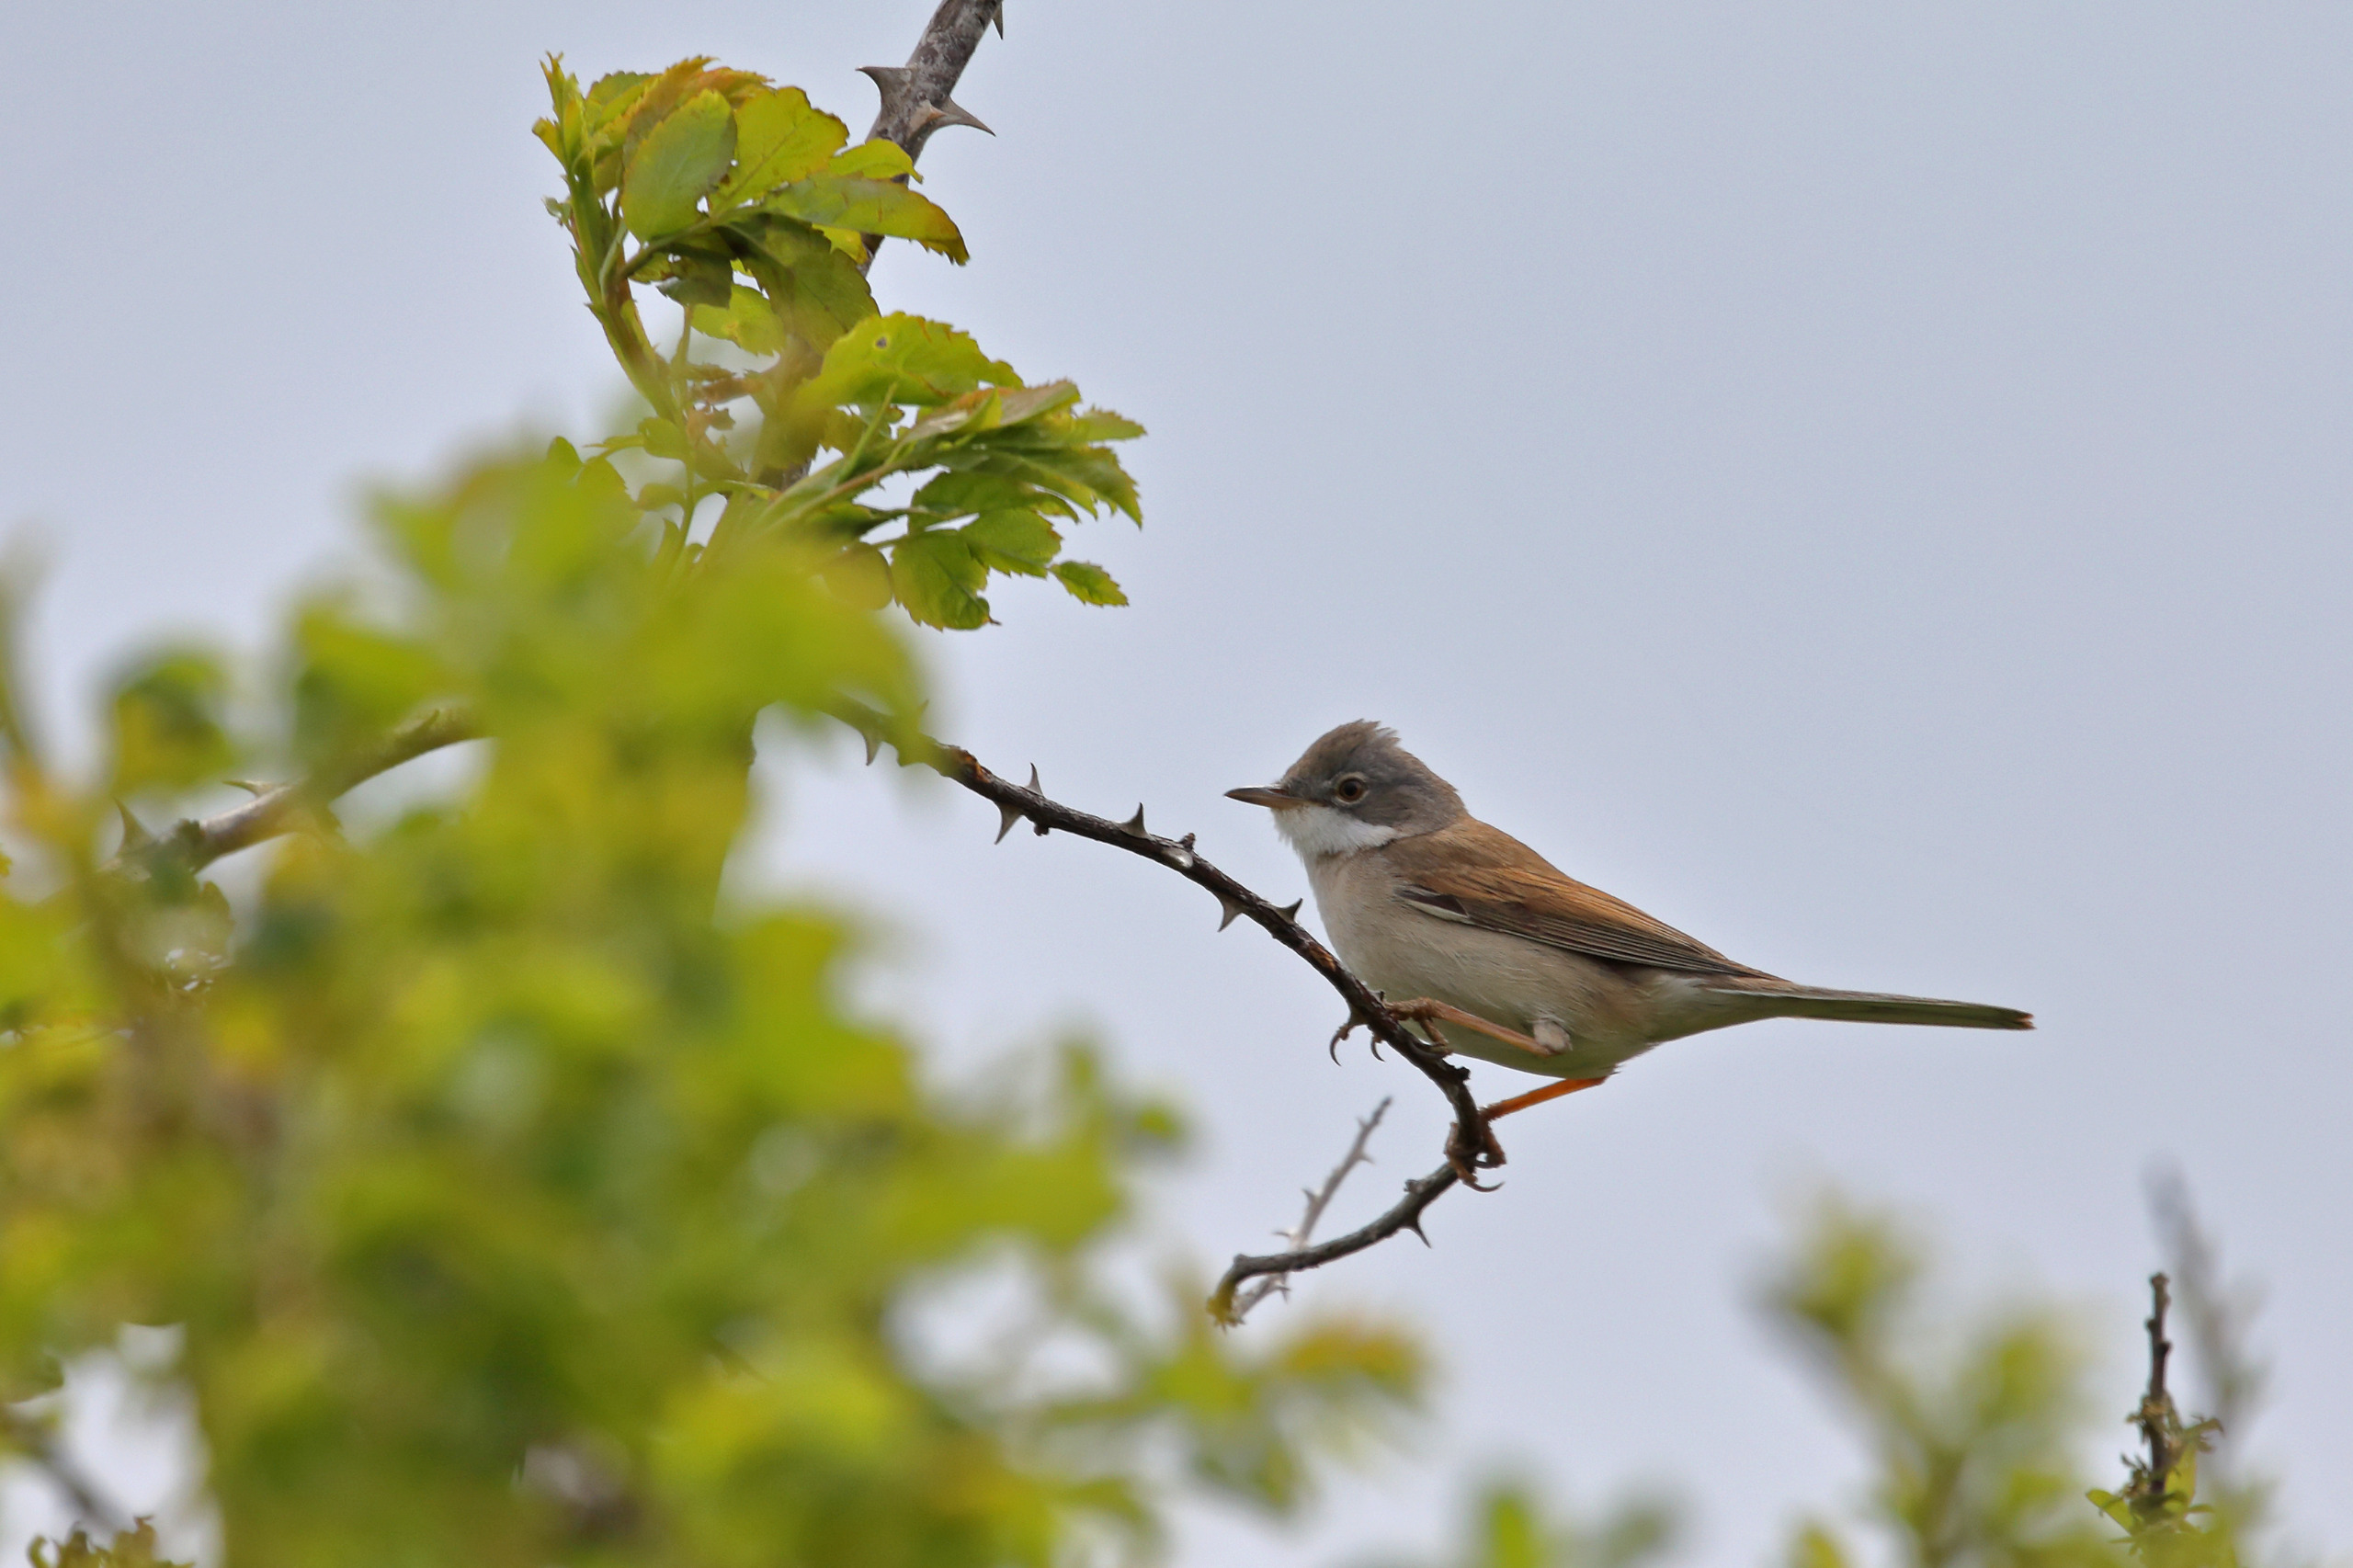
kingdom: Animalia
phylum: Chordata
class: Aves
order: Passeriformes
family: Sylviidae
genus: Sylvia
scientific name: Sylvia communis
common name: Tornsanger
